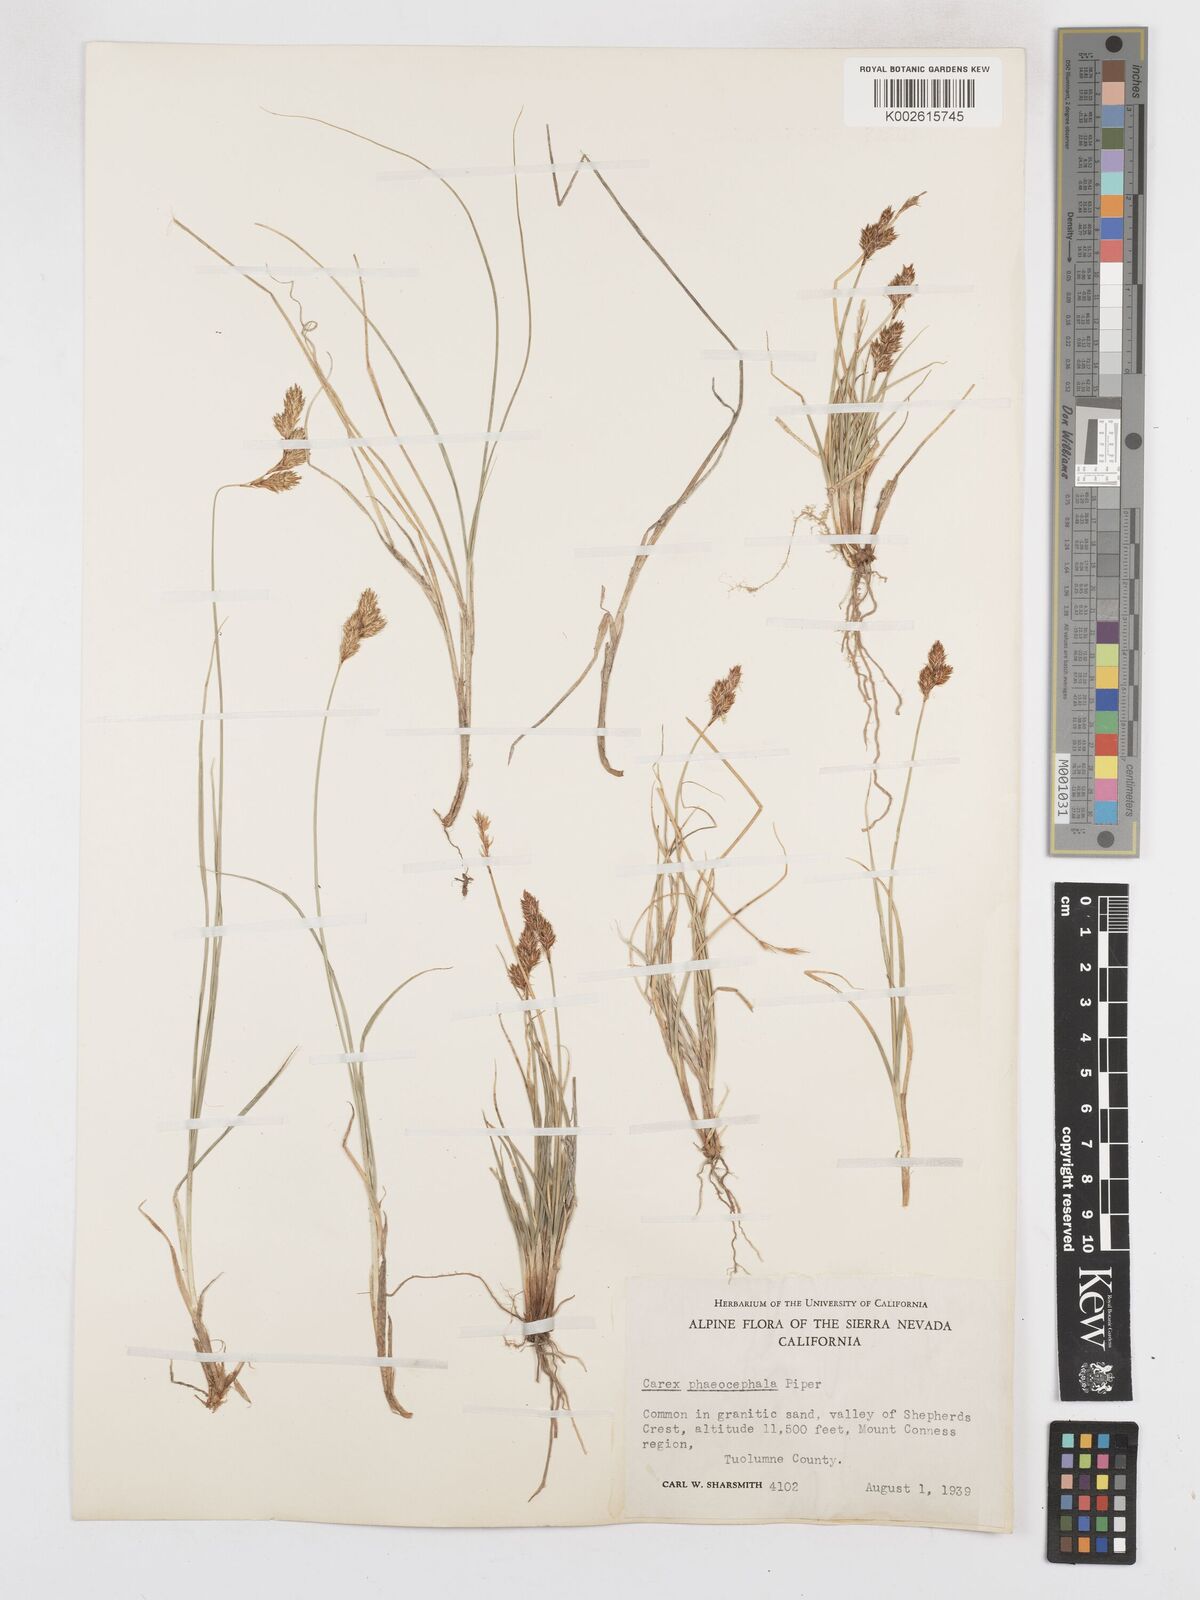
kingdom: Plantae
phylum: Tracheophyta
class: Liliopsida
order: Poales
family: Cyperaceae
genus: Carex
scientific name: Carex phaeocephala
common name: Brown-head sedge
